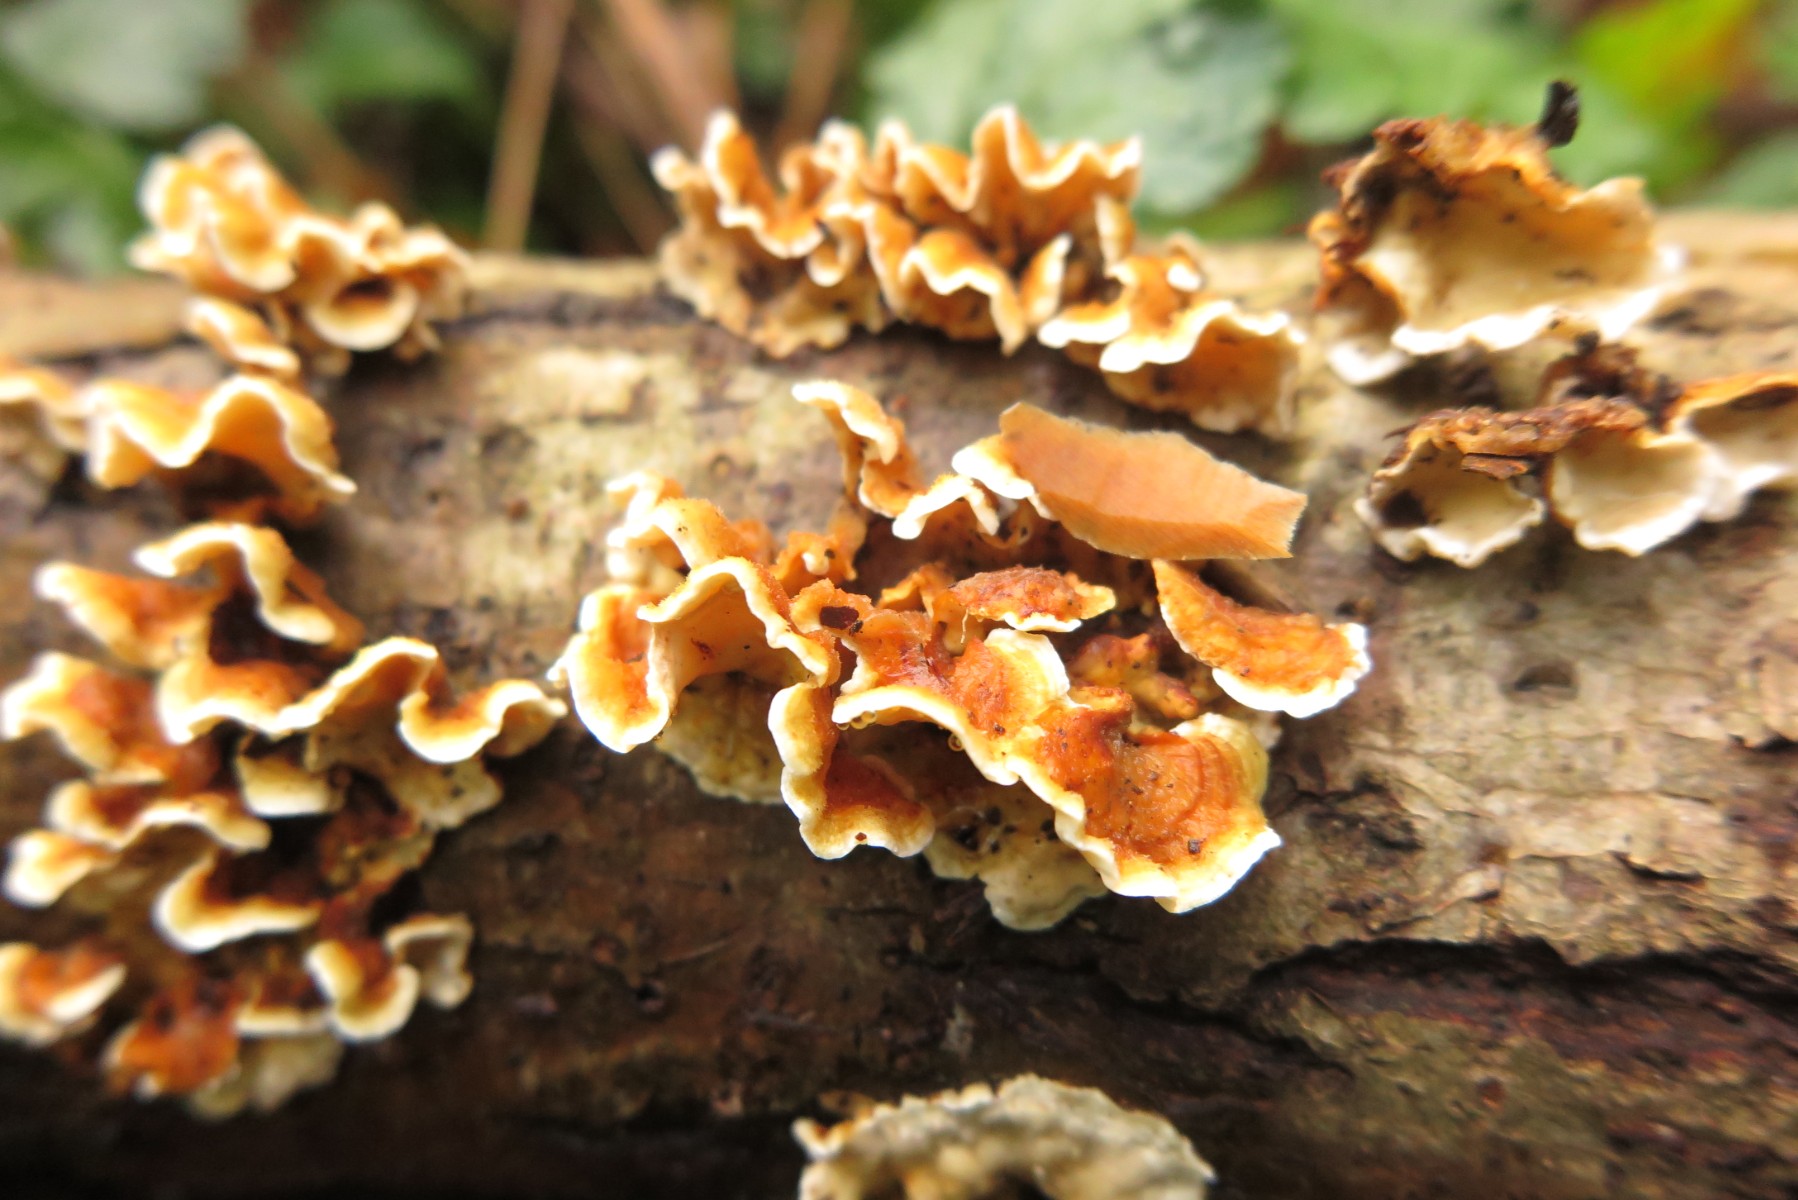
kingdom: Fungi
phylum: Basidiomycota
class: Agaricomycetes
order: Russulales
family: Stereaceae
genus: Stereum
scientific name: Stereum hirsutum
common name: håret lædersvamp
